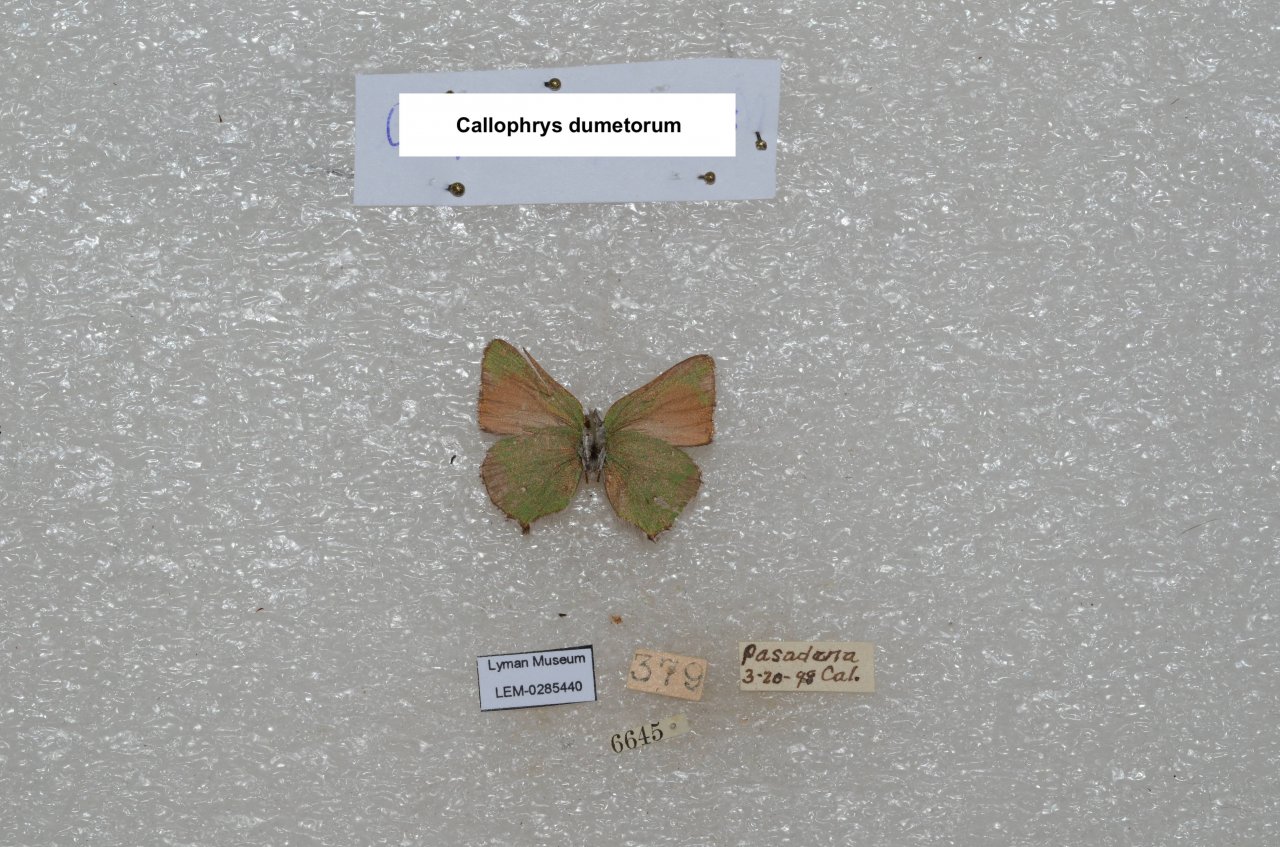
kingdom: Animalia
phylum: Arthropoda
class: Insecta
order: Lepidoptera
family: Lycaenidae
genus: Callophrys
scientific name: Callophrys dumetorum
